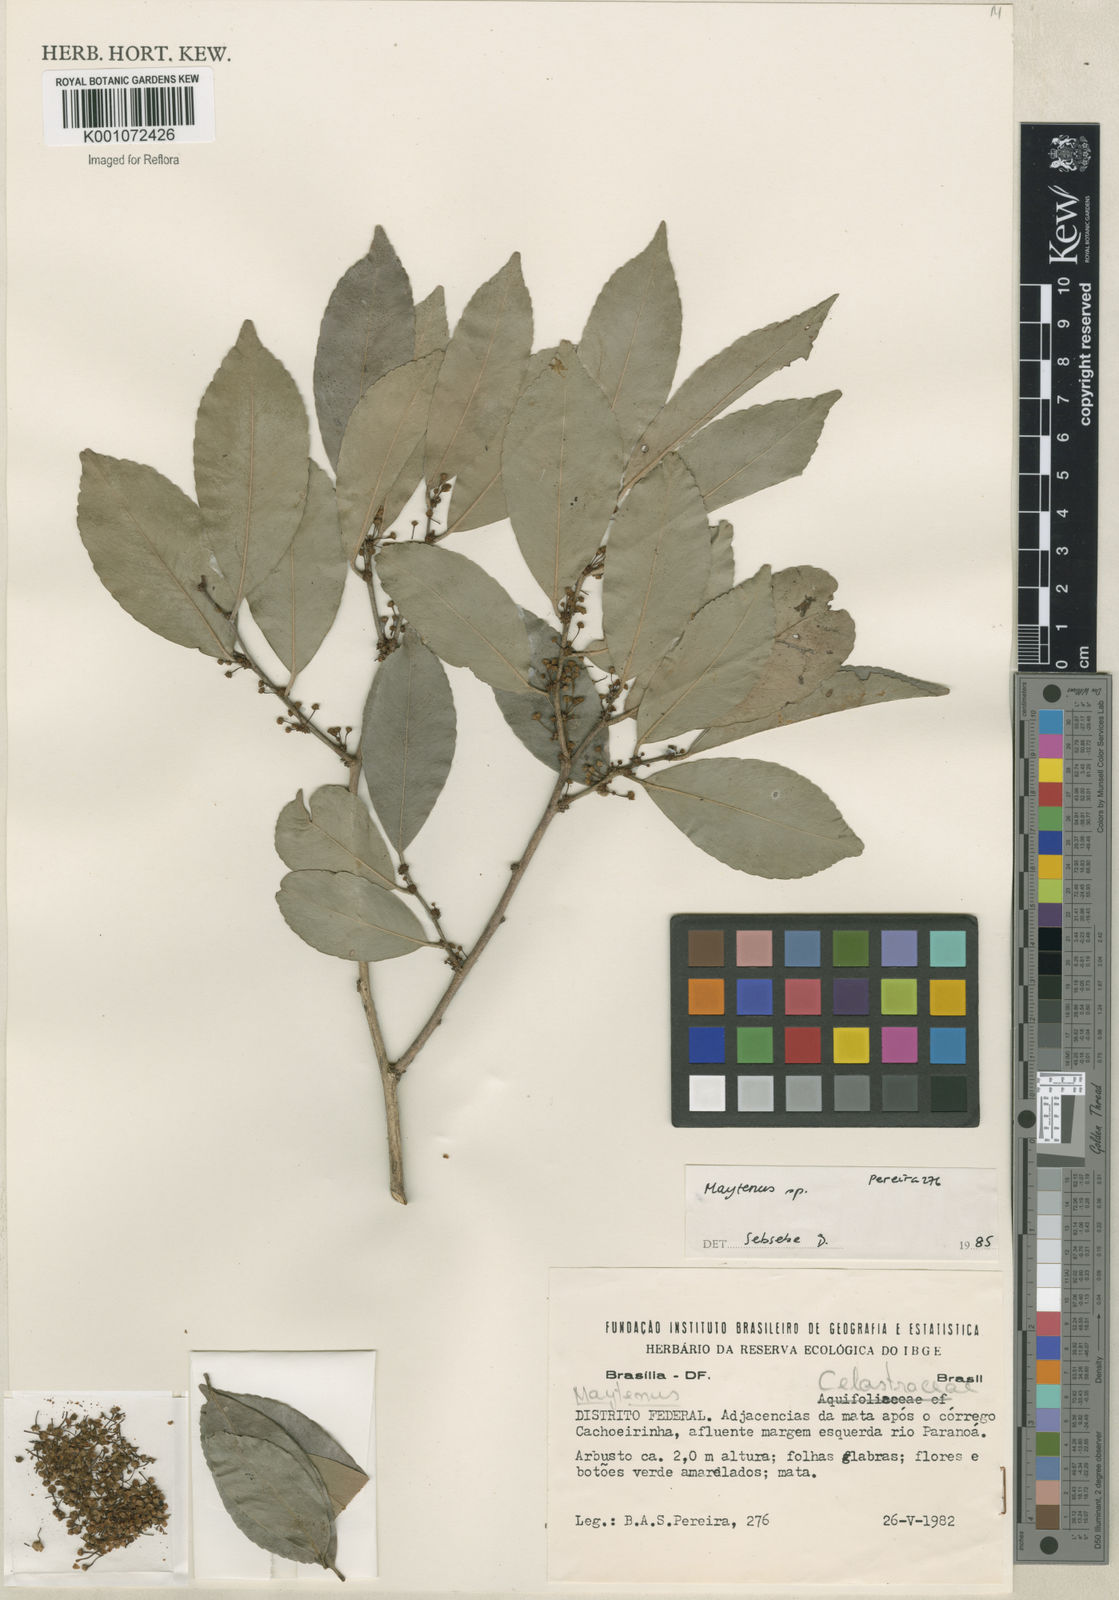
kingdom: Plantae
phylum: Tracheophyta
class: Magnoliopsida
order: Celastrales
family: Celastraceae
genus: Maytenus
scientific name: Maytenus
